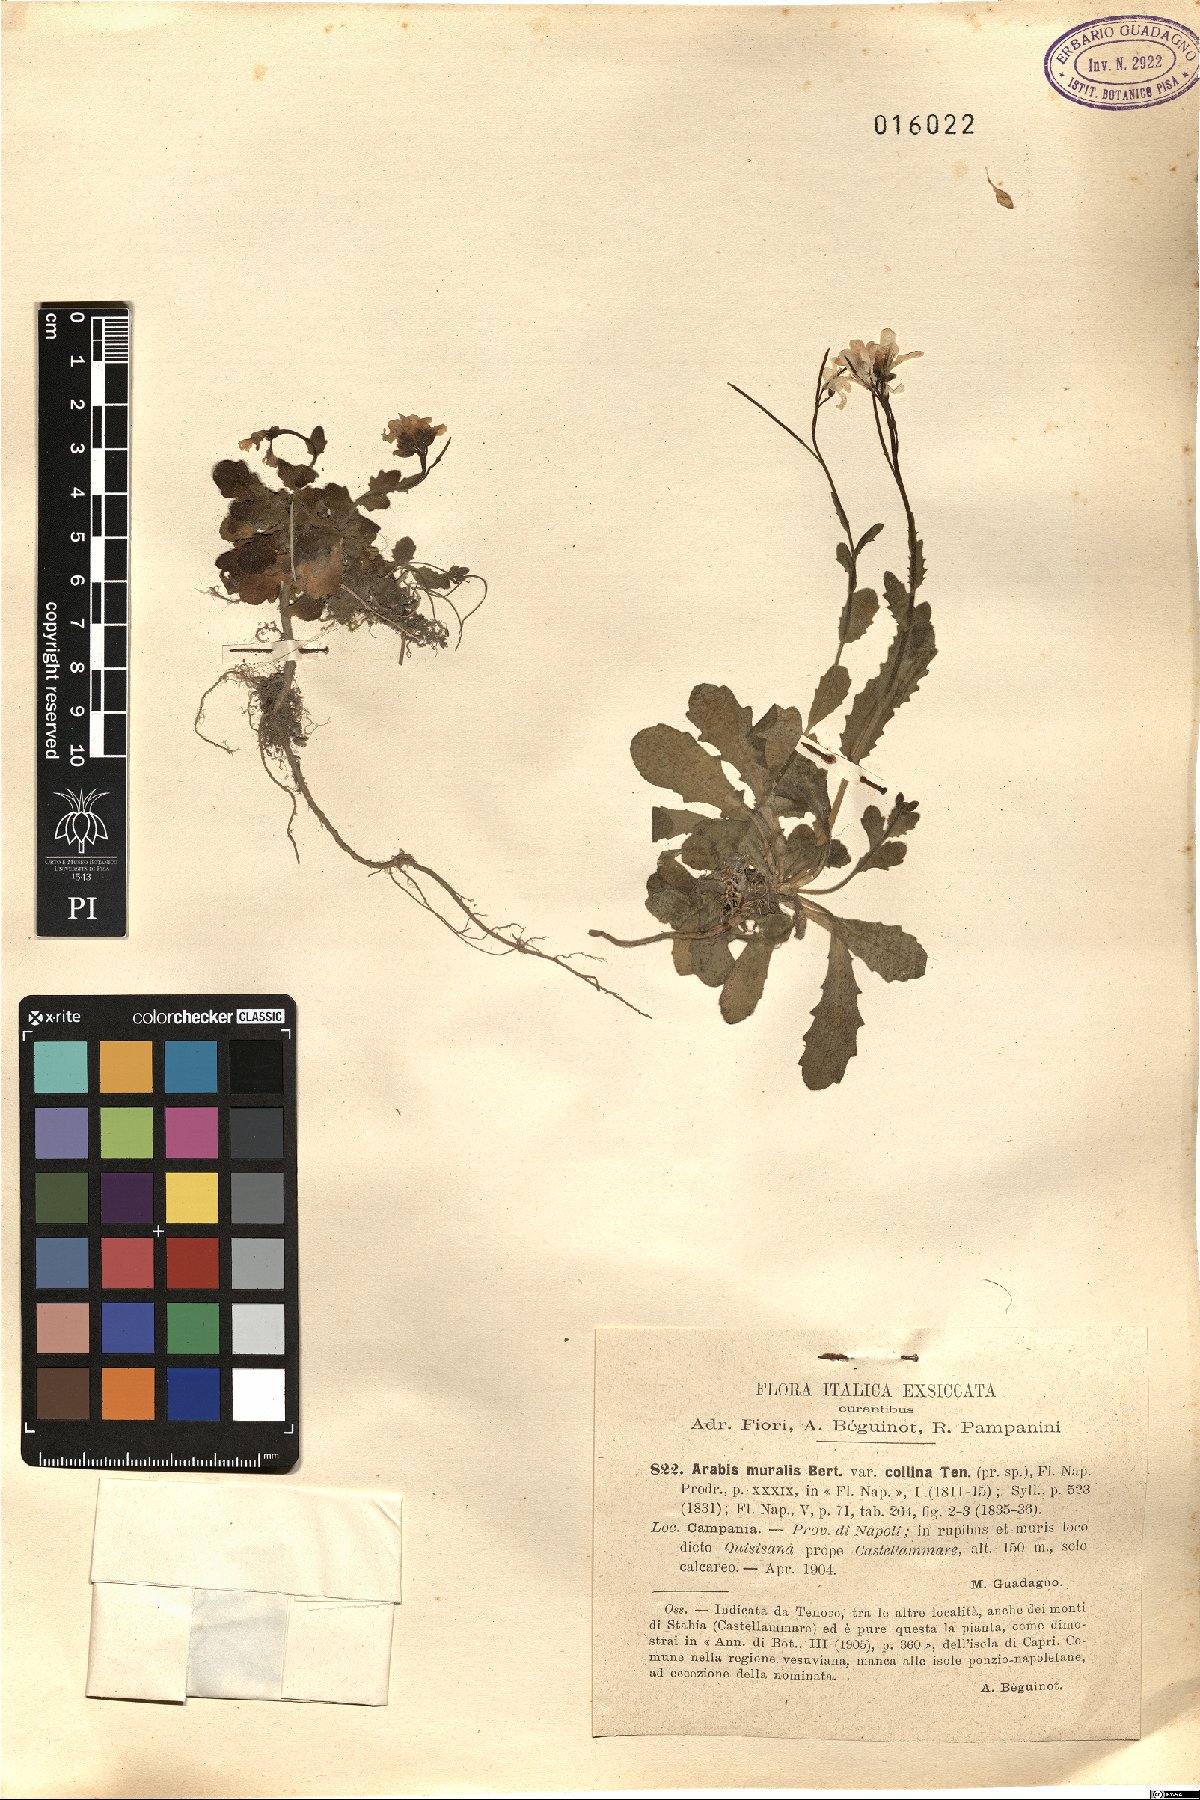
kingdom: Plantae
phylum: Tracheophyta
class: Magnoliopsida
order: Brassicales
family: Brassicaceae
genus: Arabis
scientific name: Arabis collina
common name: Rosy cress
